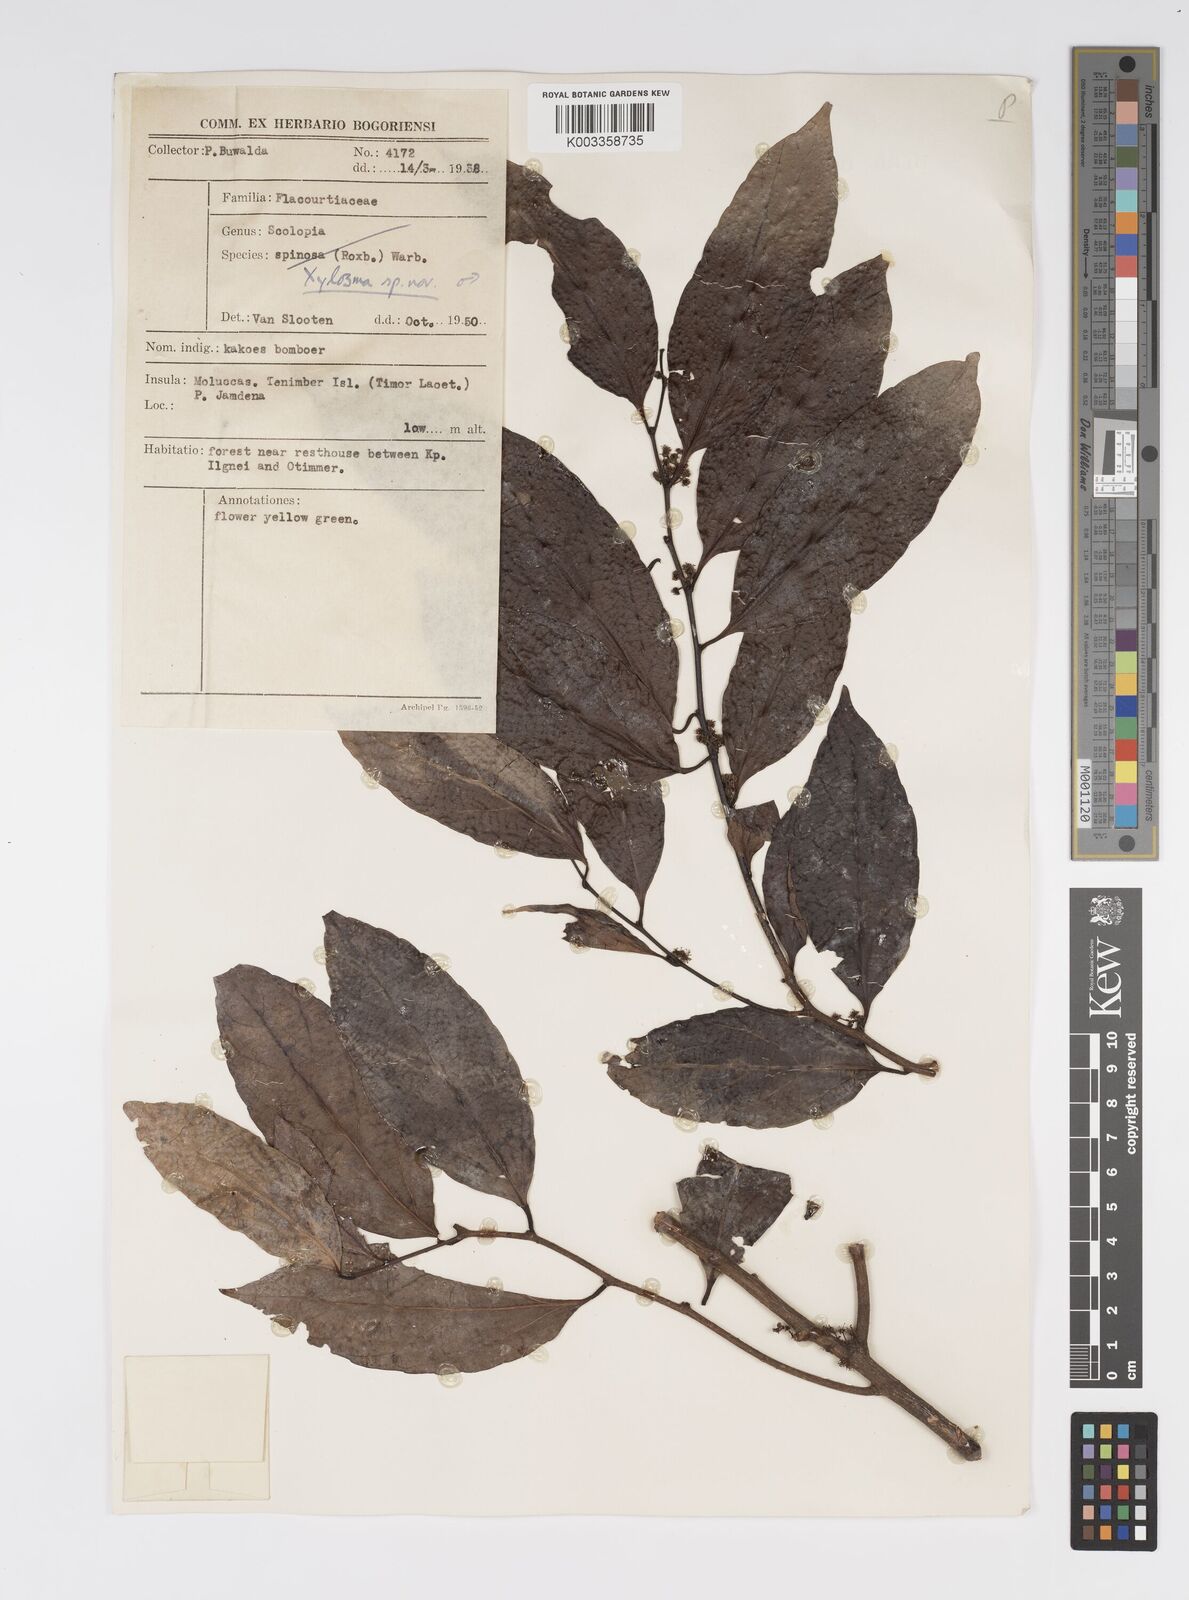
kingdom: Plantae
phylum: Tracheophyta
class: Magnoliopsida
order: Malpighiales
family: Salicaceae
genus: Xylosma
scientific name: Xylosma
